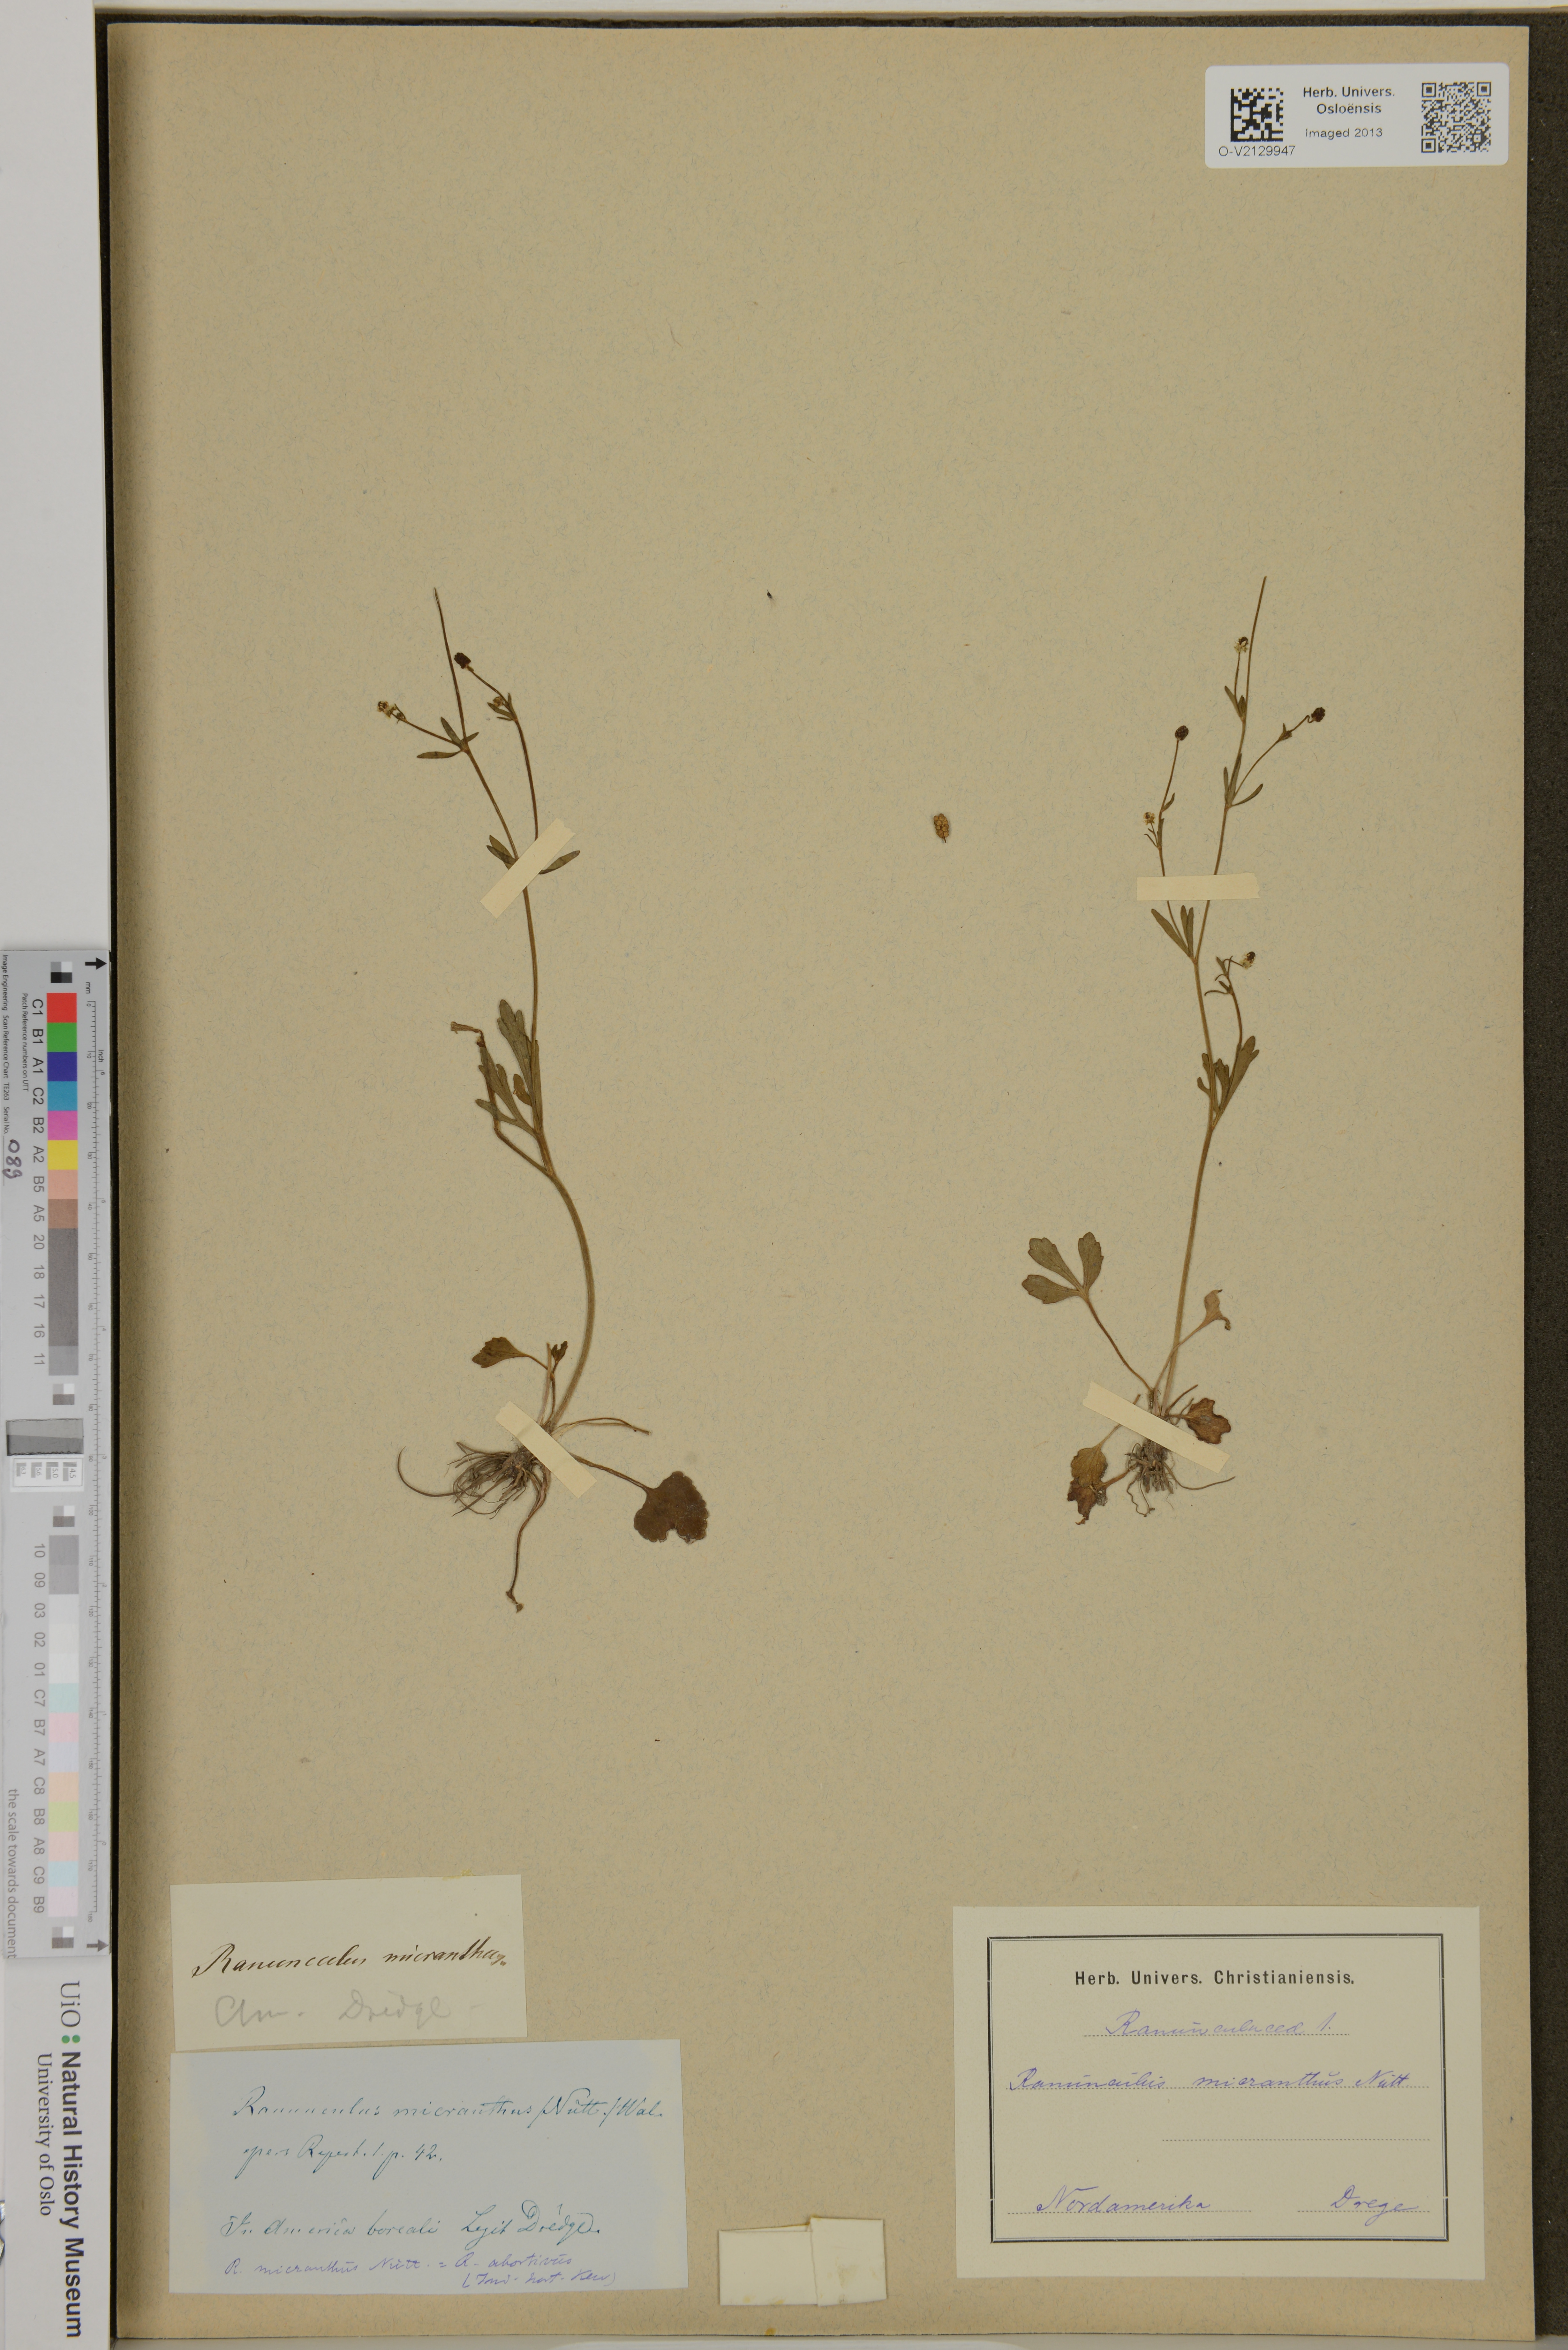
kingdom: Plantae
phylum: Tracheophyta
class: Magnoliopsida
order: Ranunculales
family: Ranunculaceae
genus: Ranunculus
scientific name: Ranunculus micranthus
